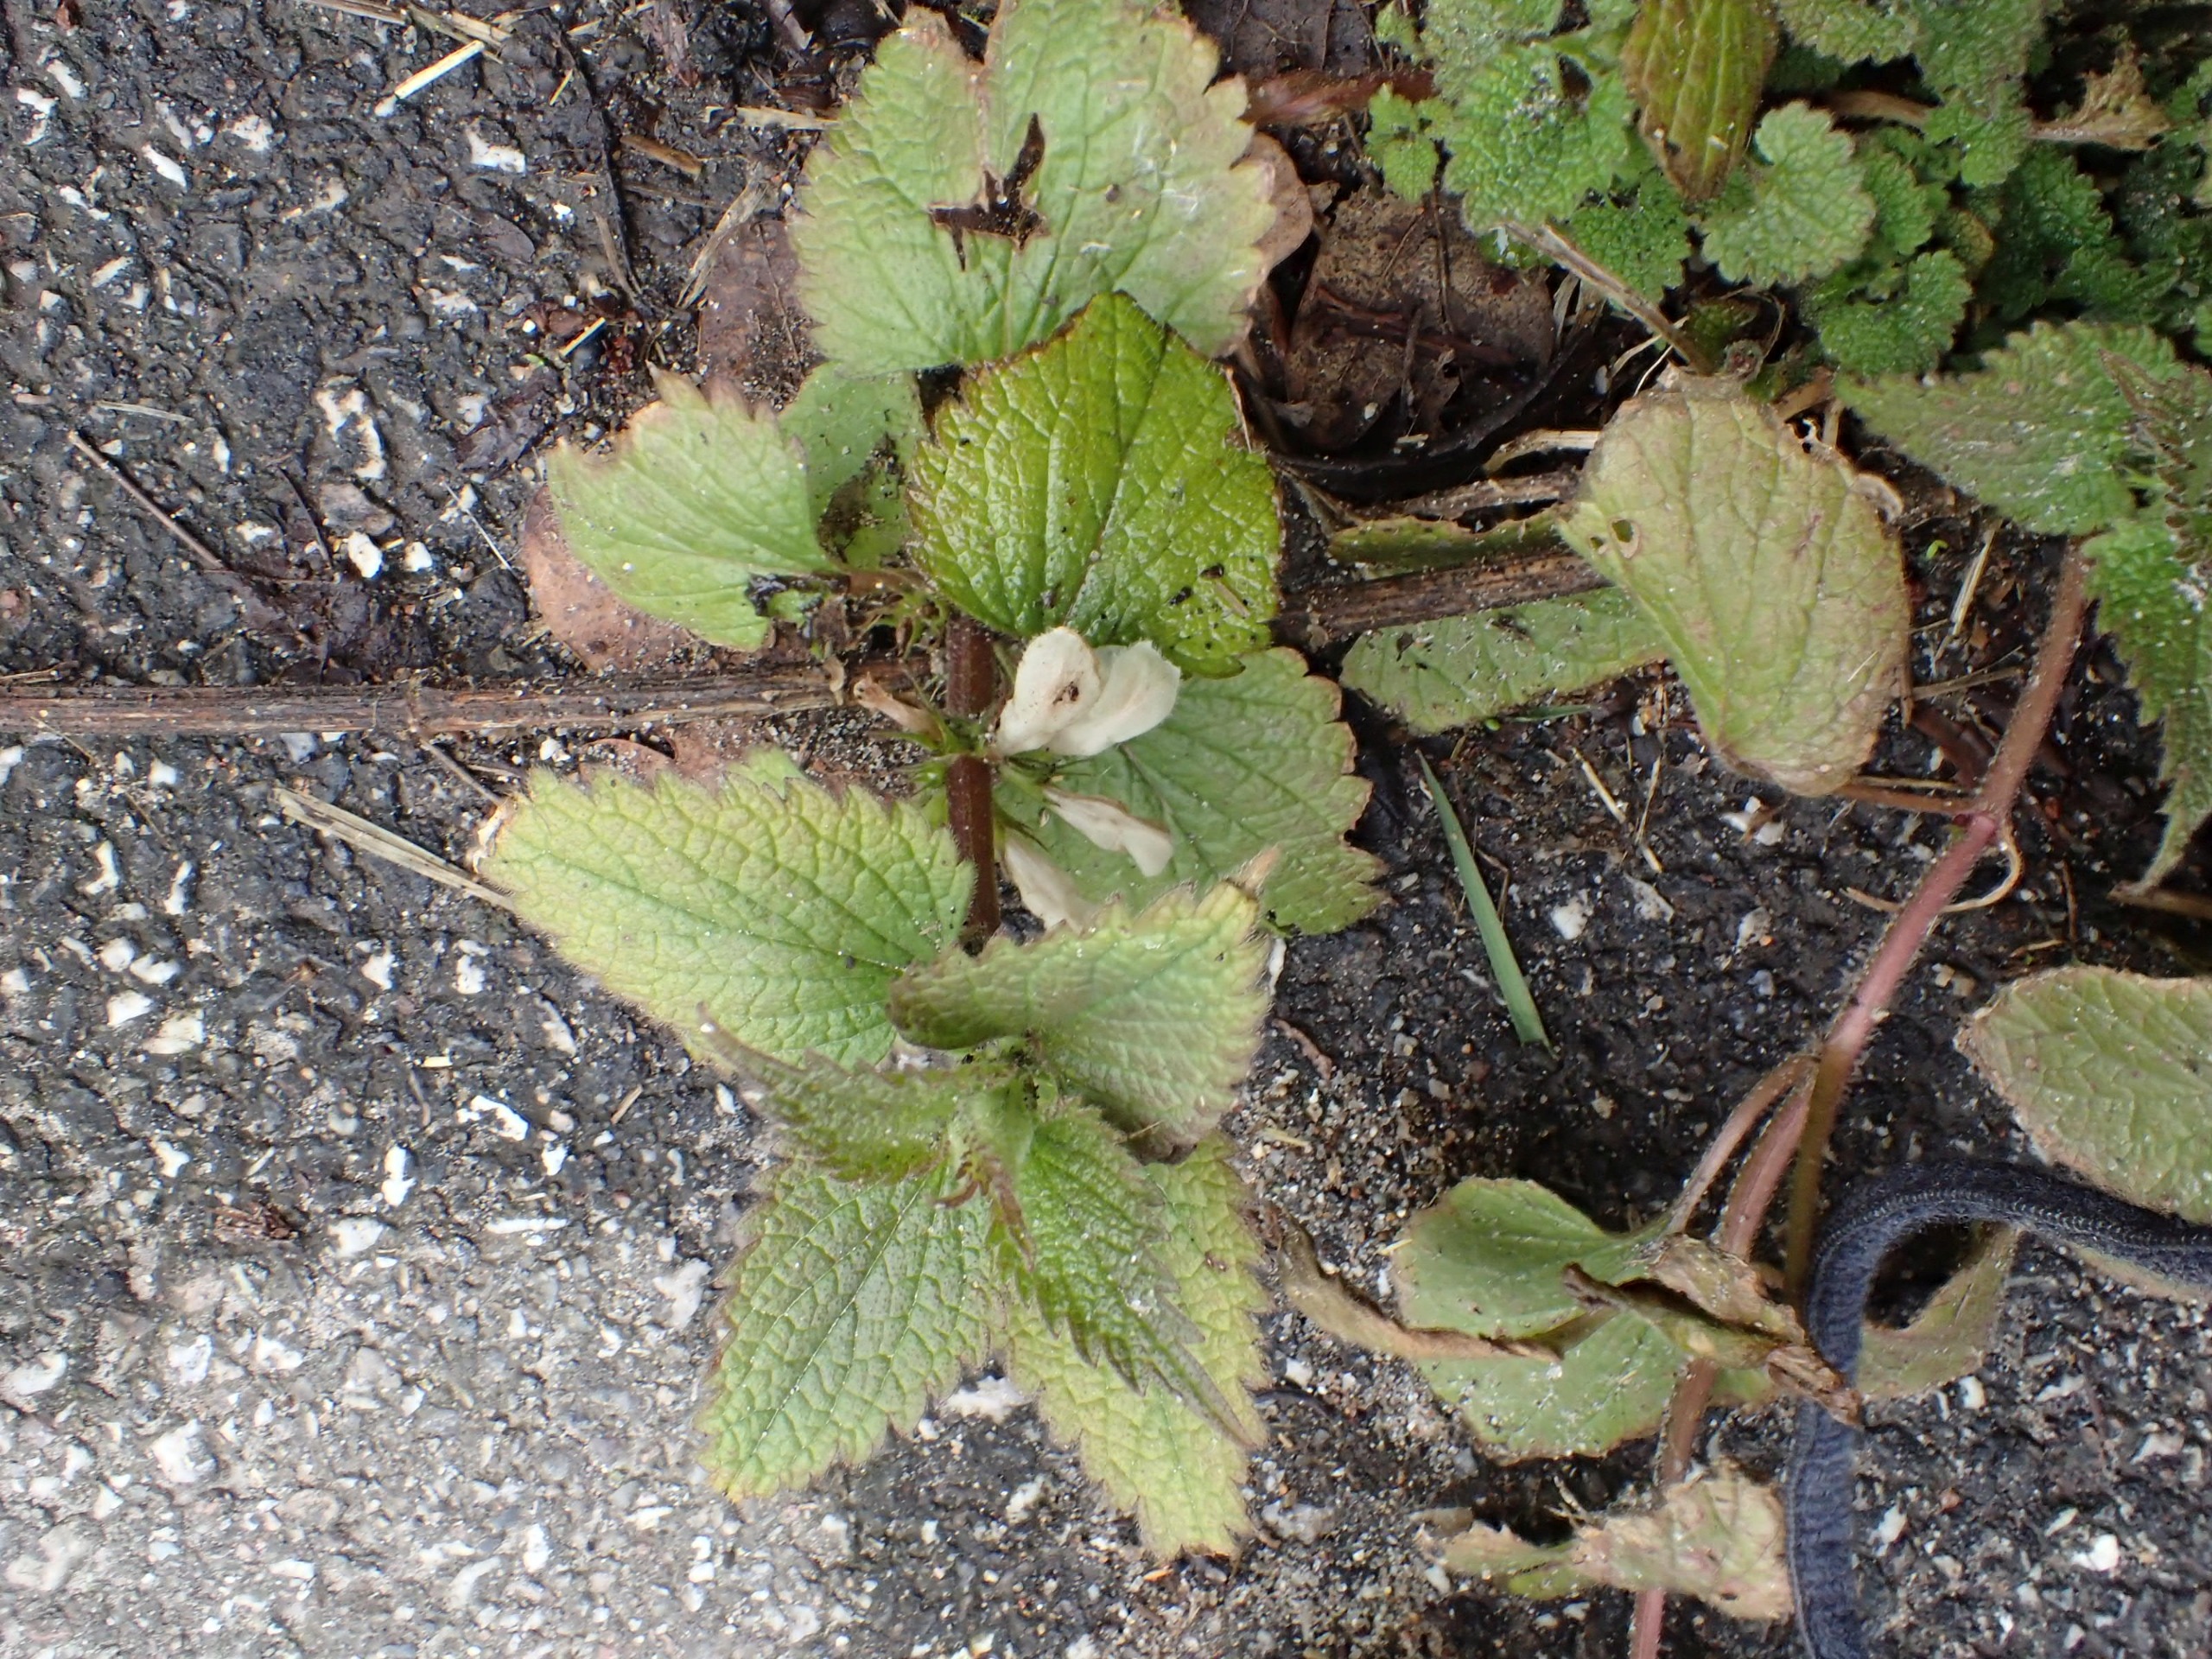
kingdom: Plantae
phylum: Tracheophyta
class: Magnoliopsida
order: Lamiales
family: Lamiaceae
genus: Lamium
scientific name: Lamium album
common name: Døvnælde
